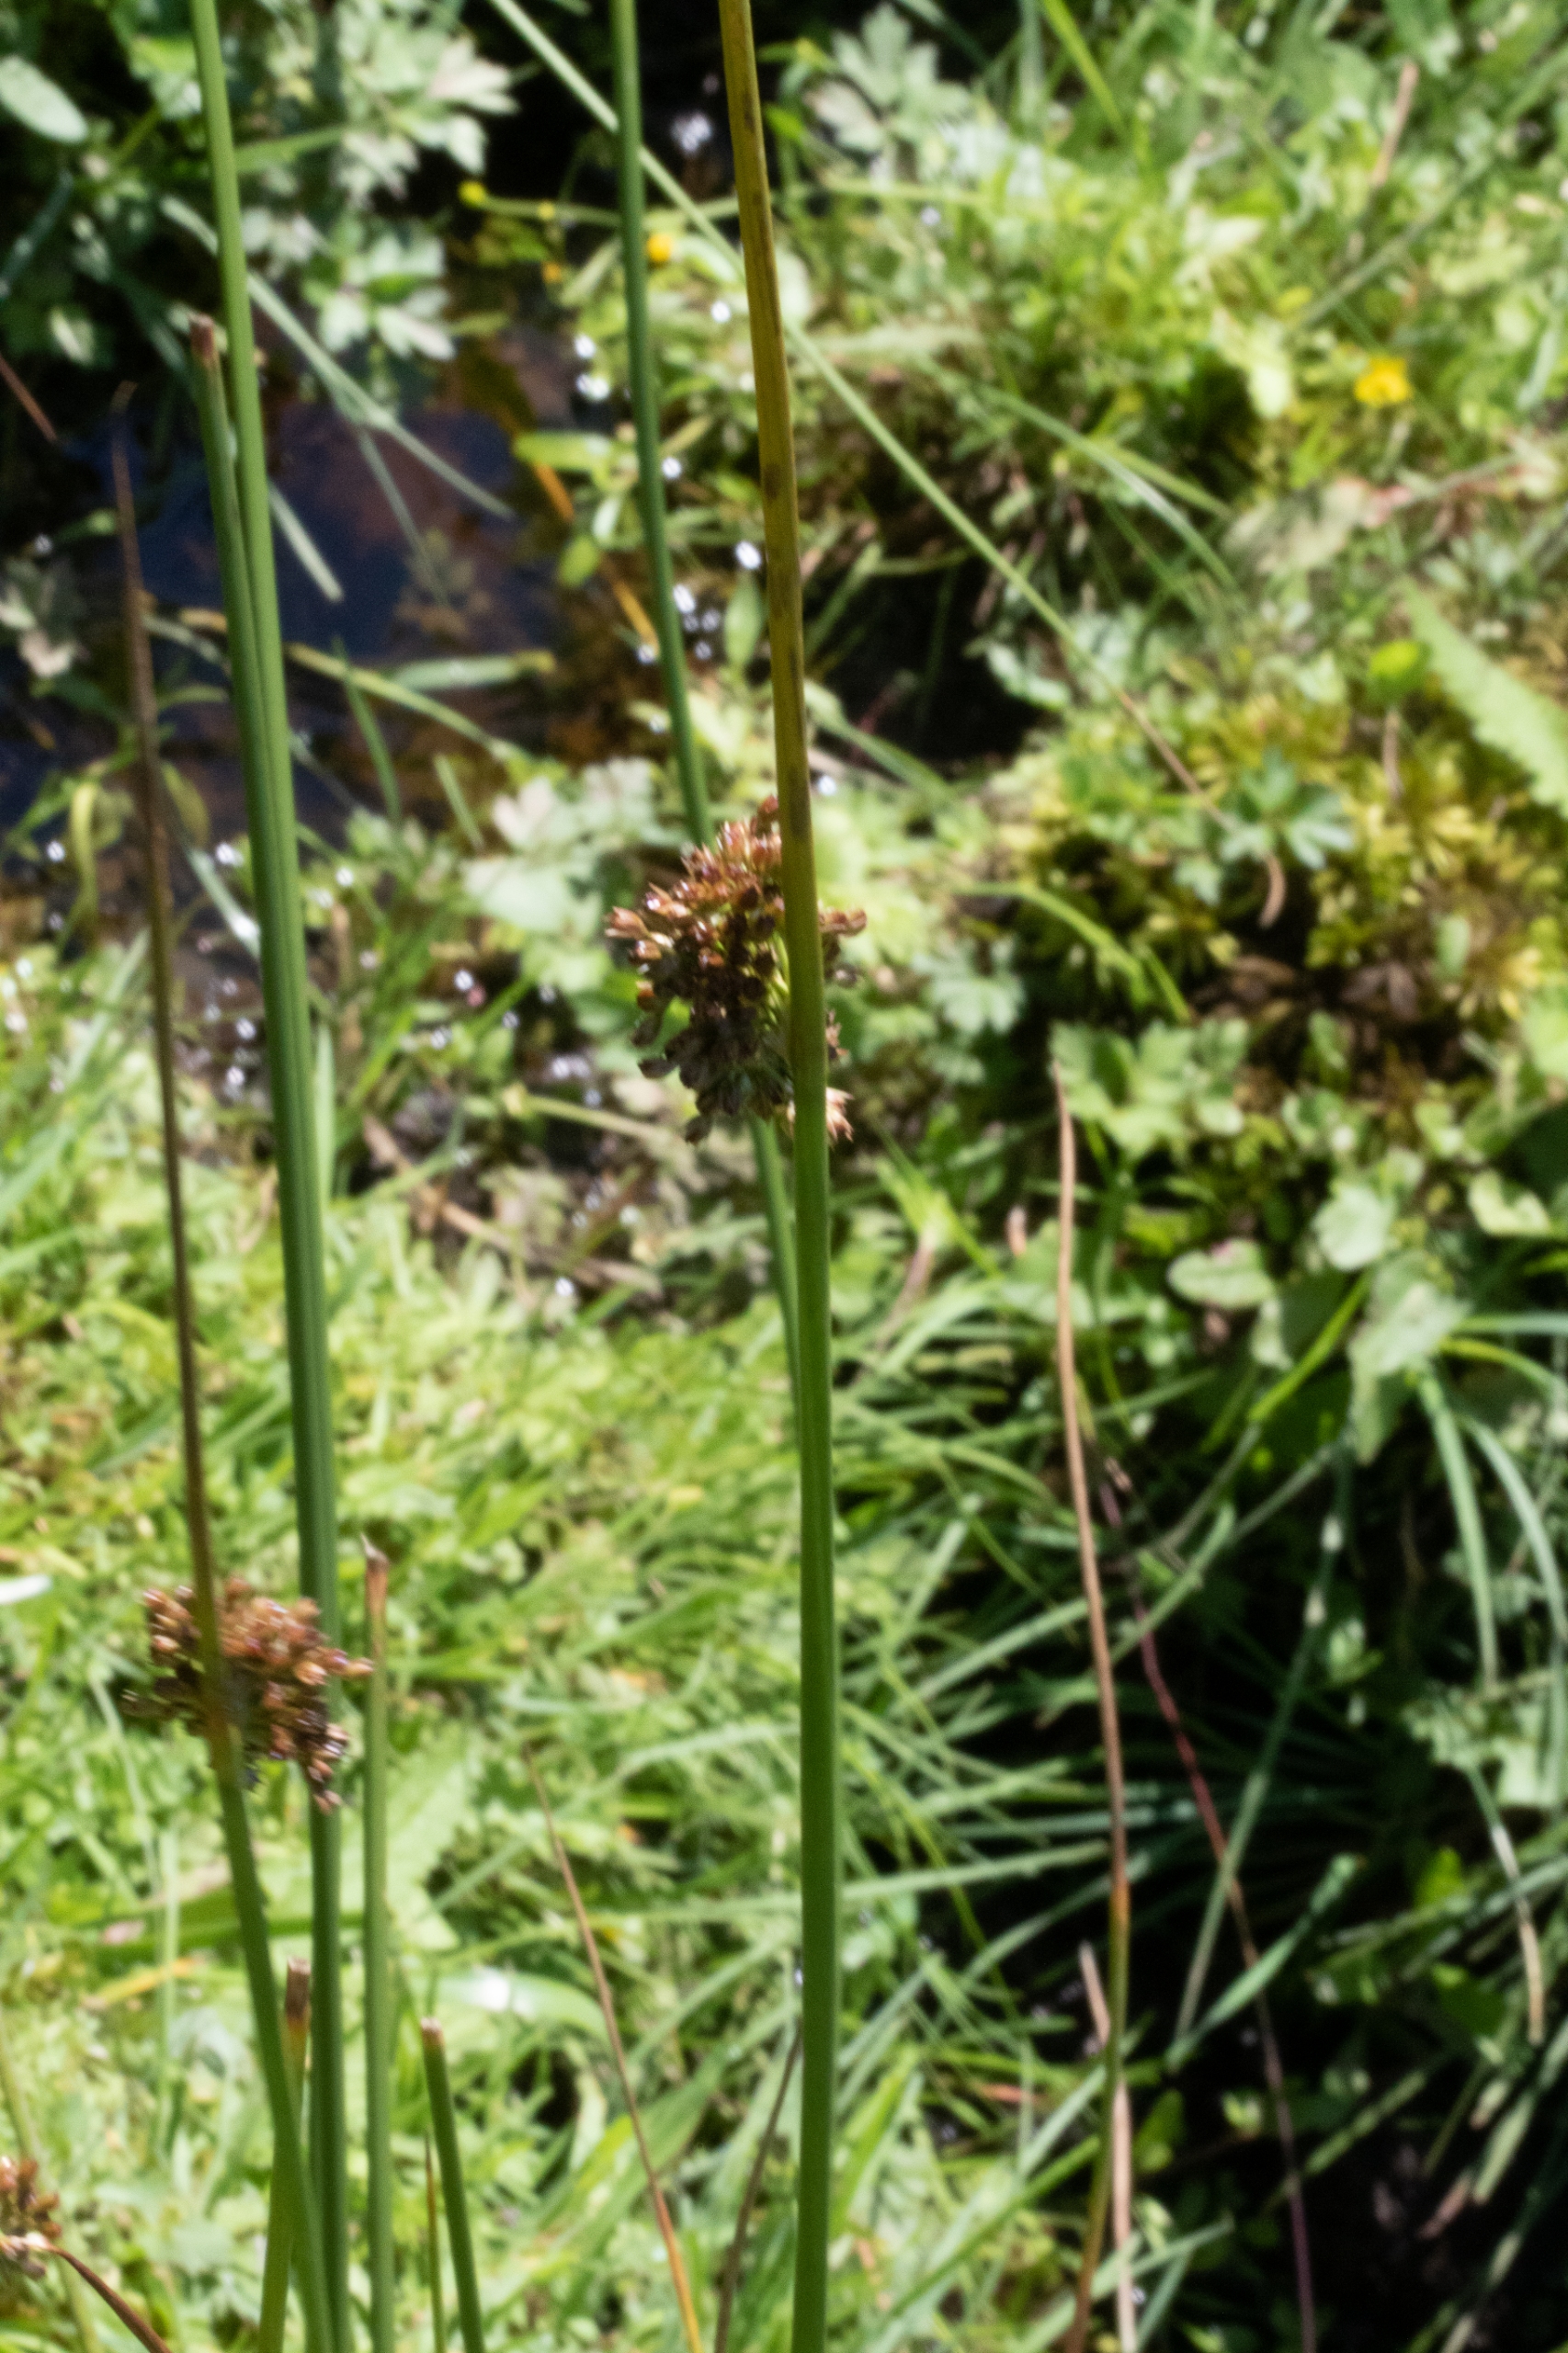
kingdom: Plantae
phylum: Tracheophyta
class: Liliopsida
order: Poales
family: Juncaceae
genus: Juncus
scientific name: Juncus effusus
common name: Lyse-siv
